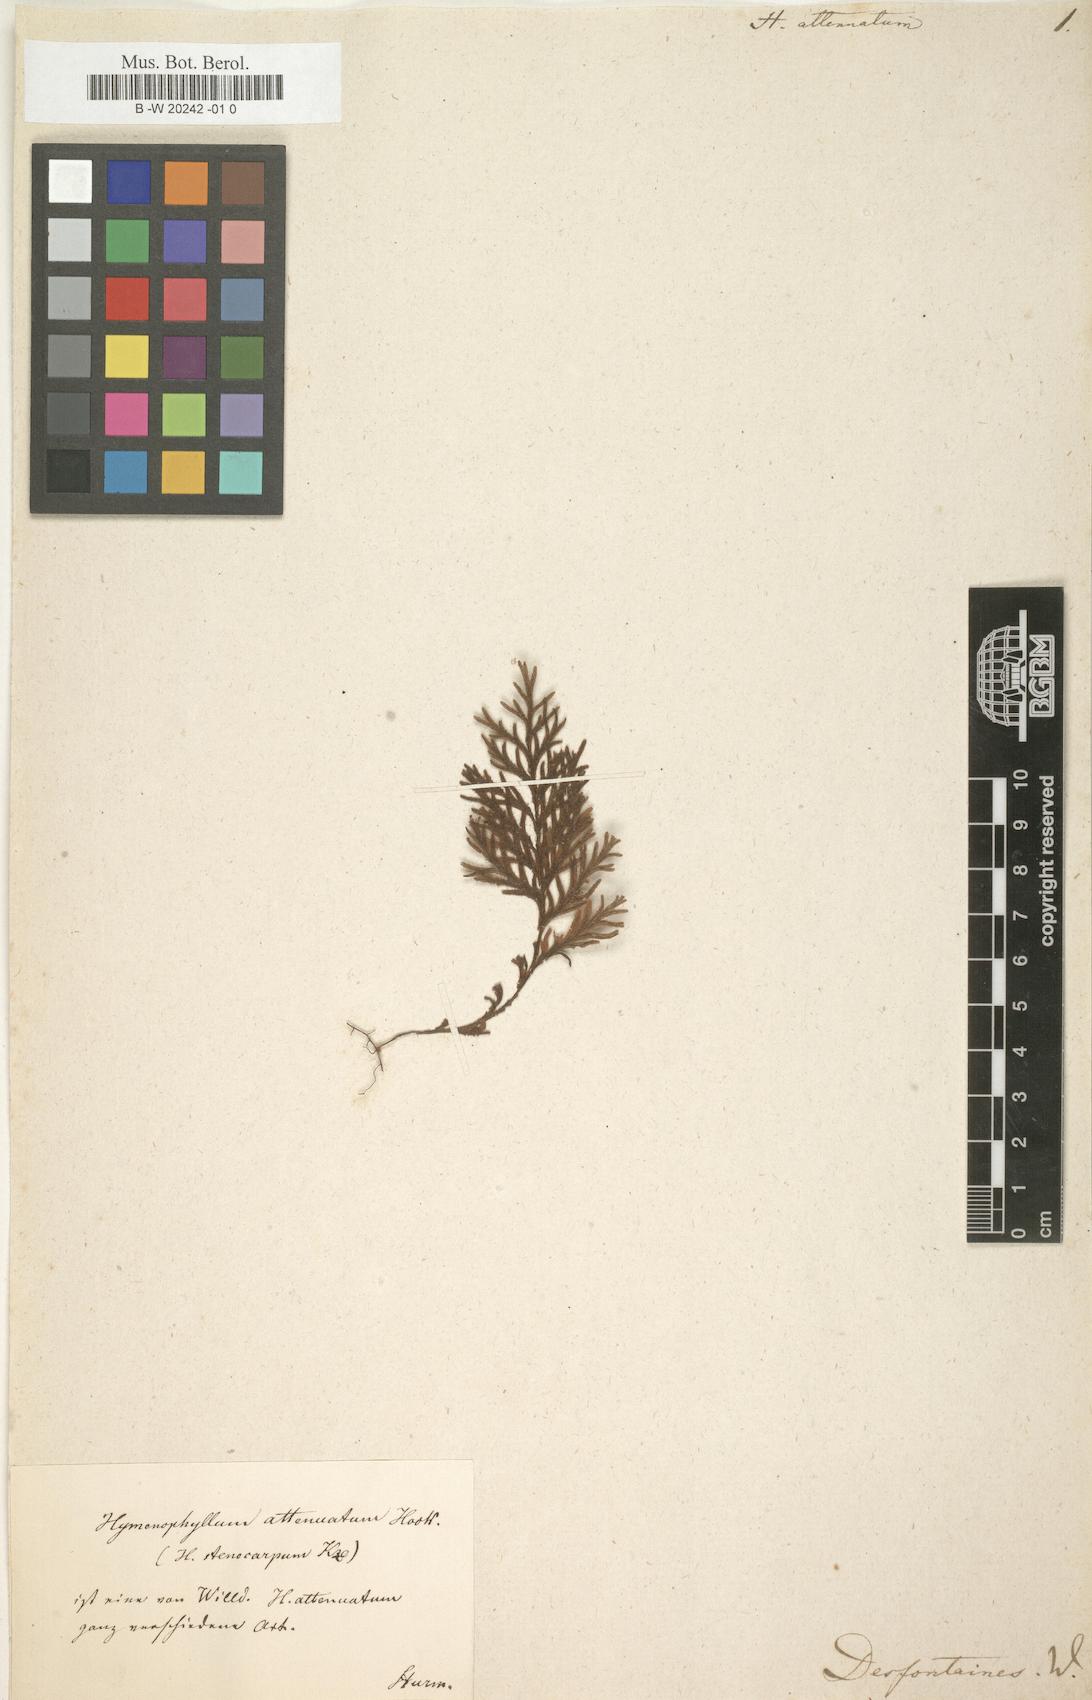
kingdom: Plantae
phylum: Tracheophyta
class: Polypodiopsida
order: Hymenophyllales
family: Hymenophyllaceae
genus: Hymenophyllum
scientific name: Hymenophyllum seselifolium
